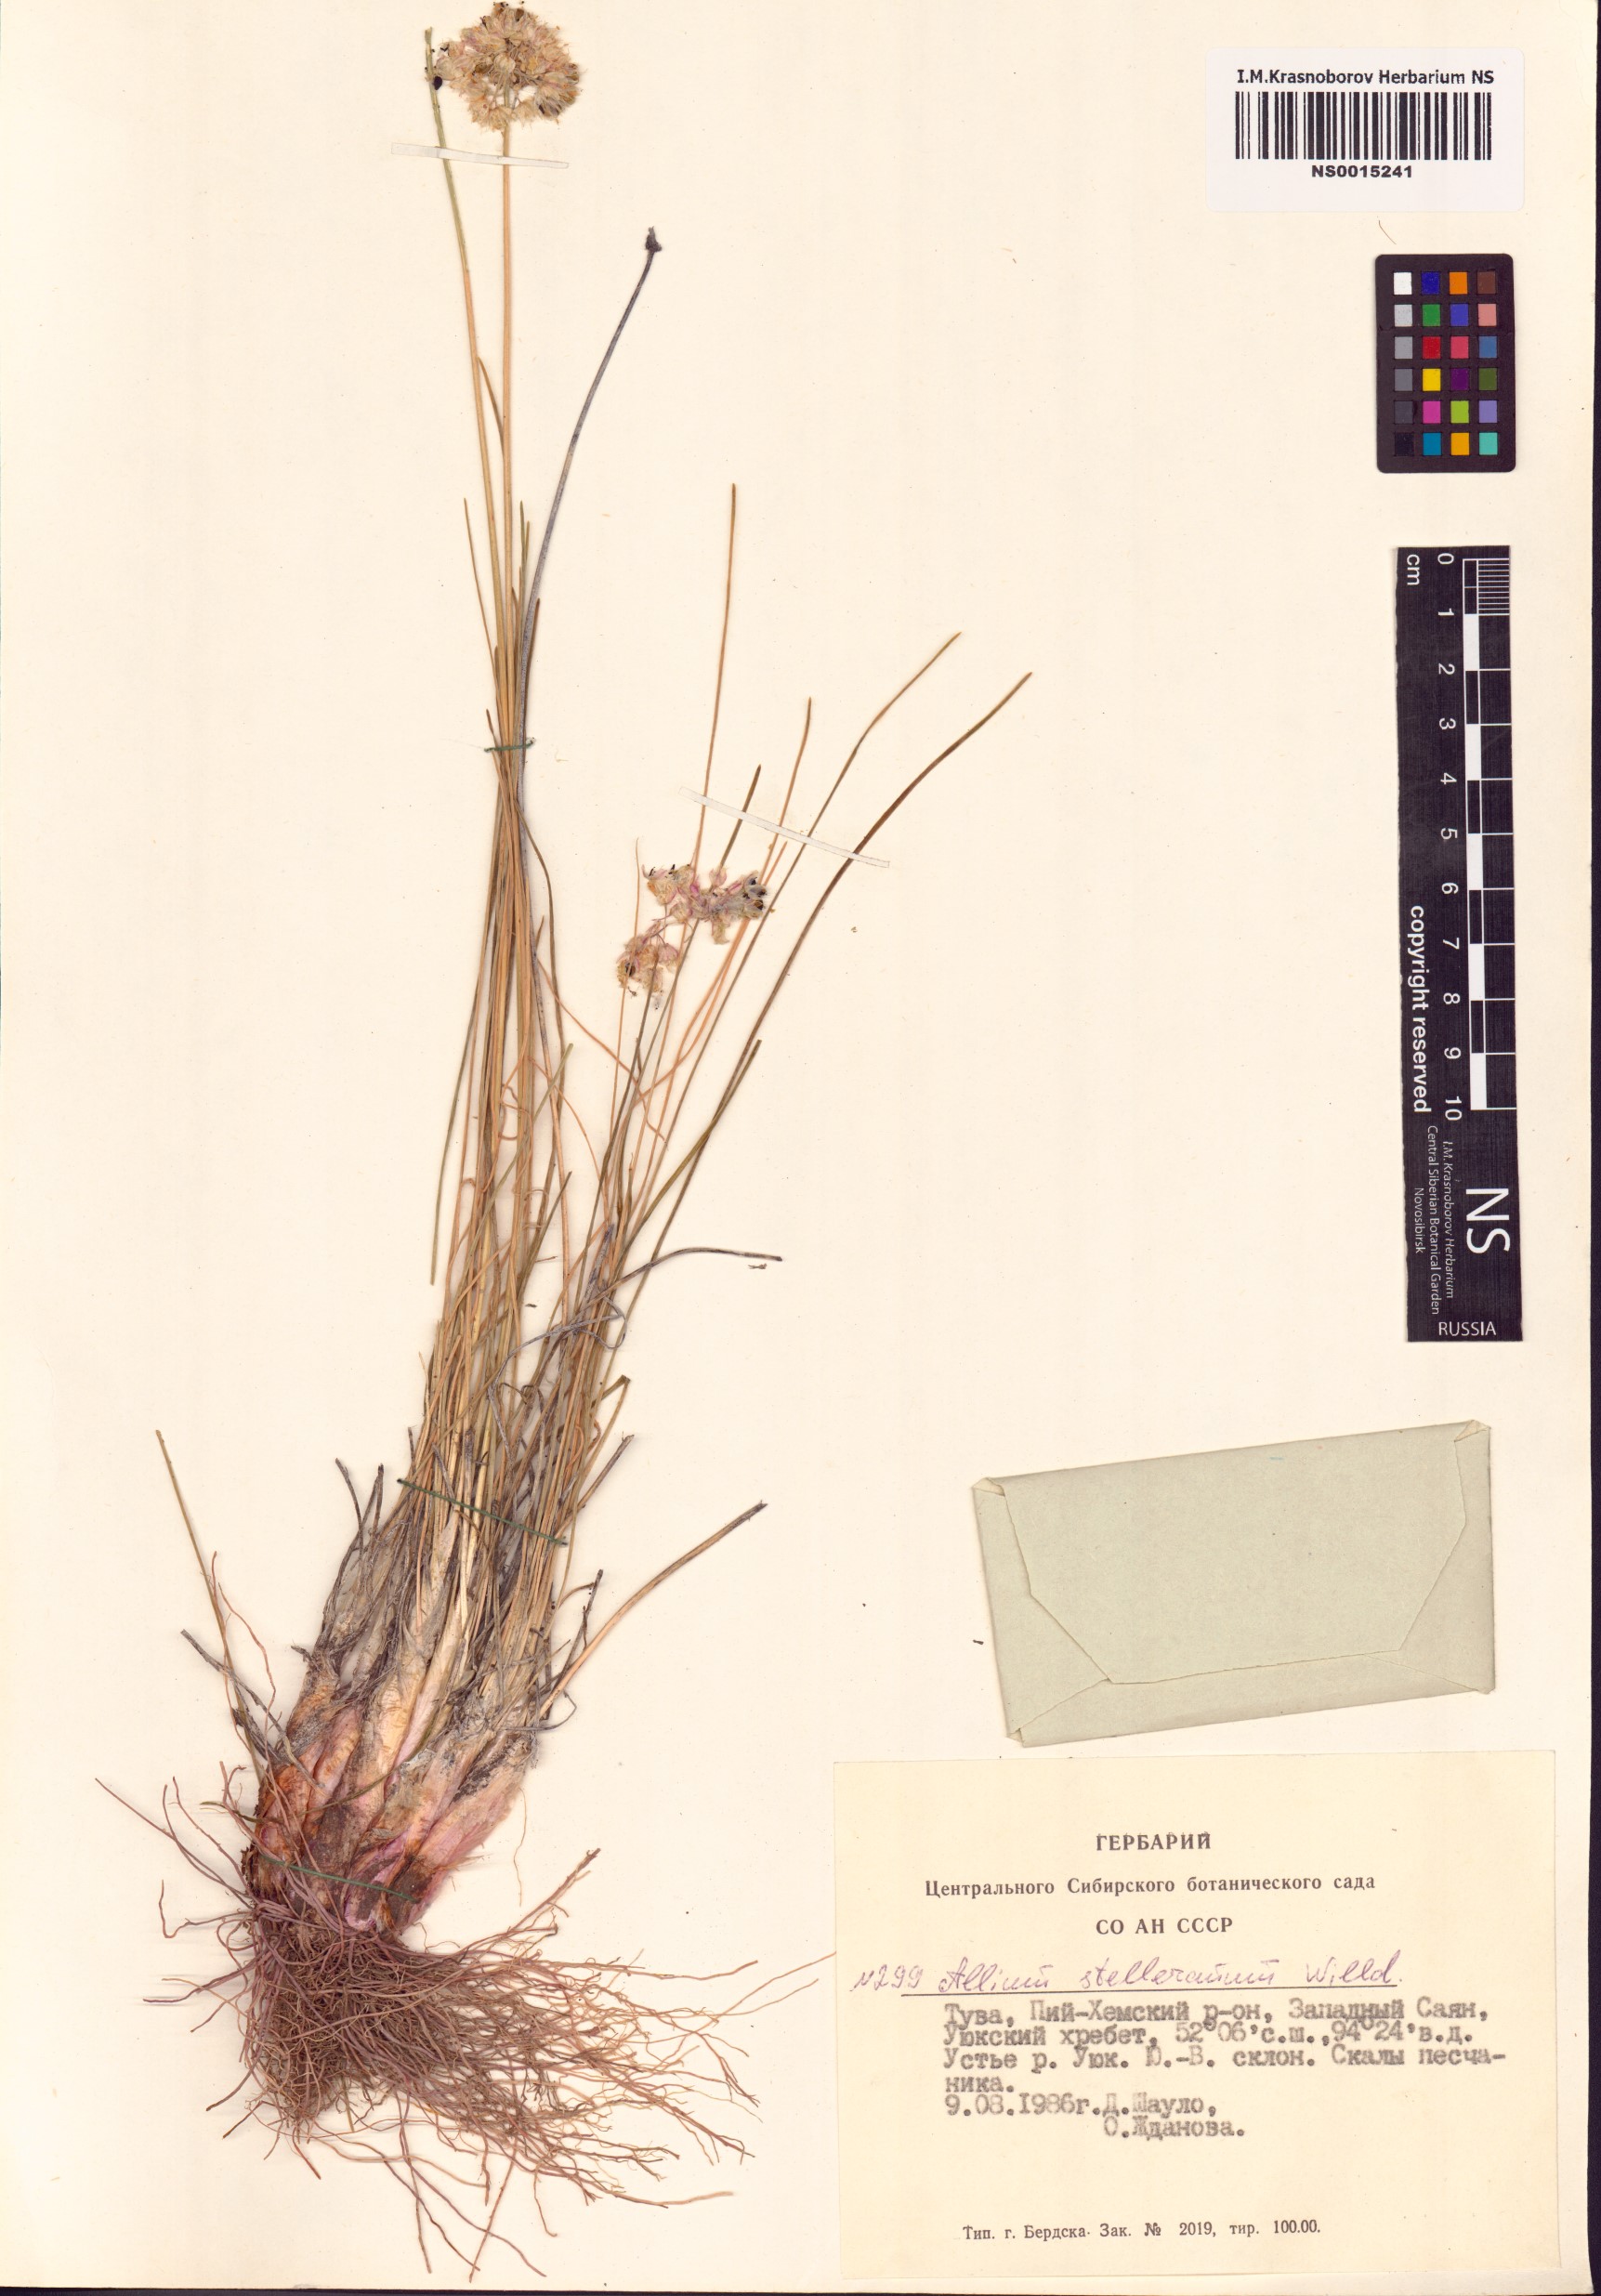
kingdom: Plantae
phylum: Tracheophyta
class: Liliopsida
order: Asparagales
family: Amaryllidaceae
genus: Allium
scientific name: Allium stellerianum
